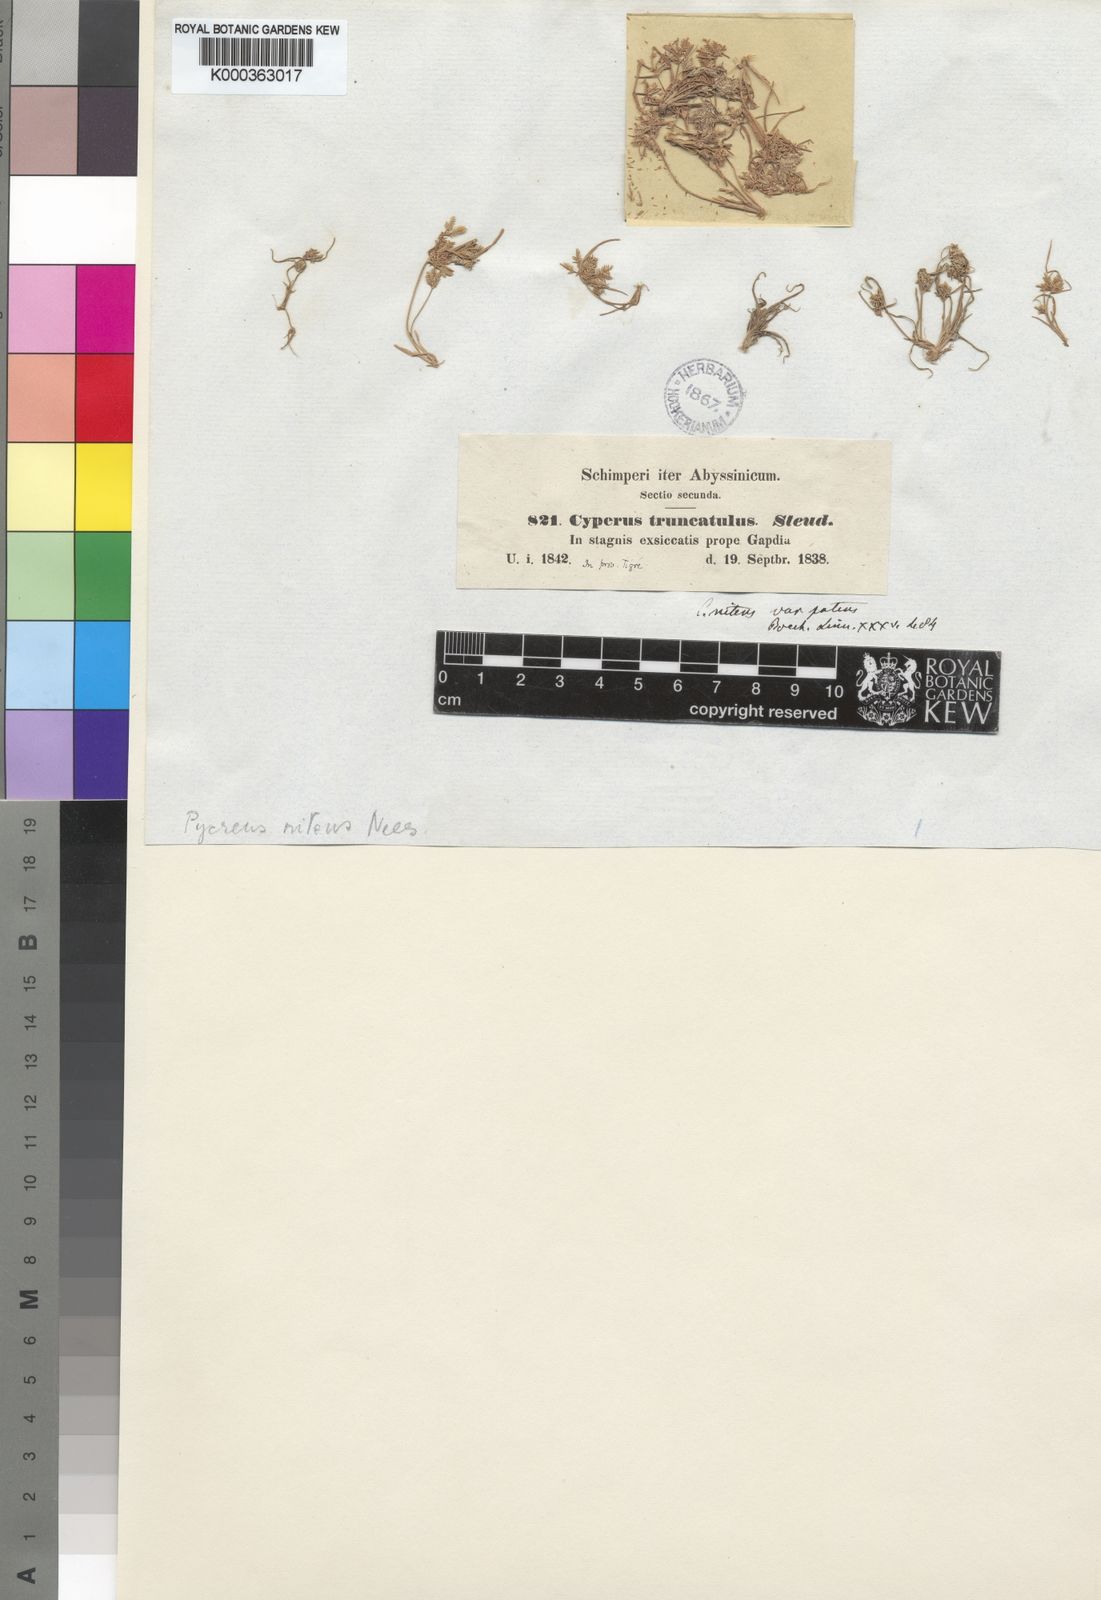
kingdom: Plantae
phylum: Tracheophyta
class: Liliopsida
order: Poales
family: Cyperaceae
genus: Cyperus
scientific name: Cyperus pumilus
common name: Low flatsedge
